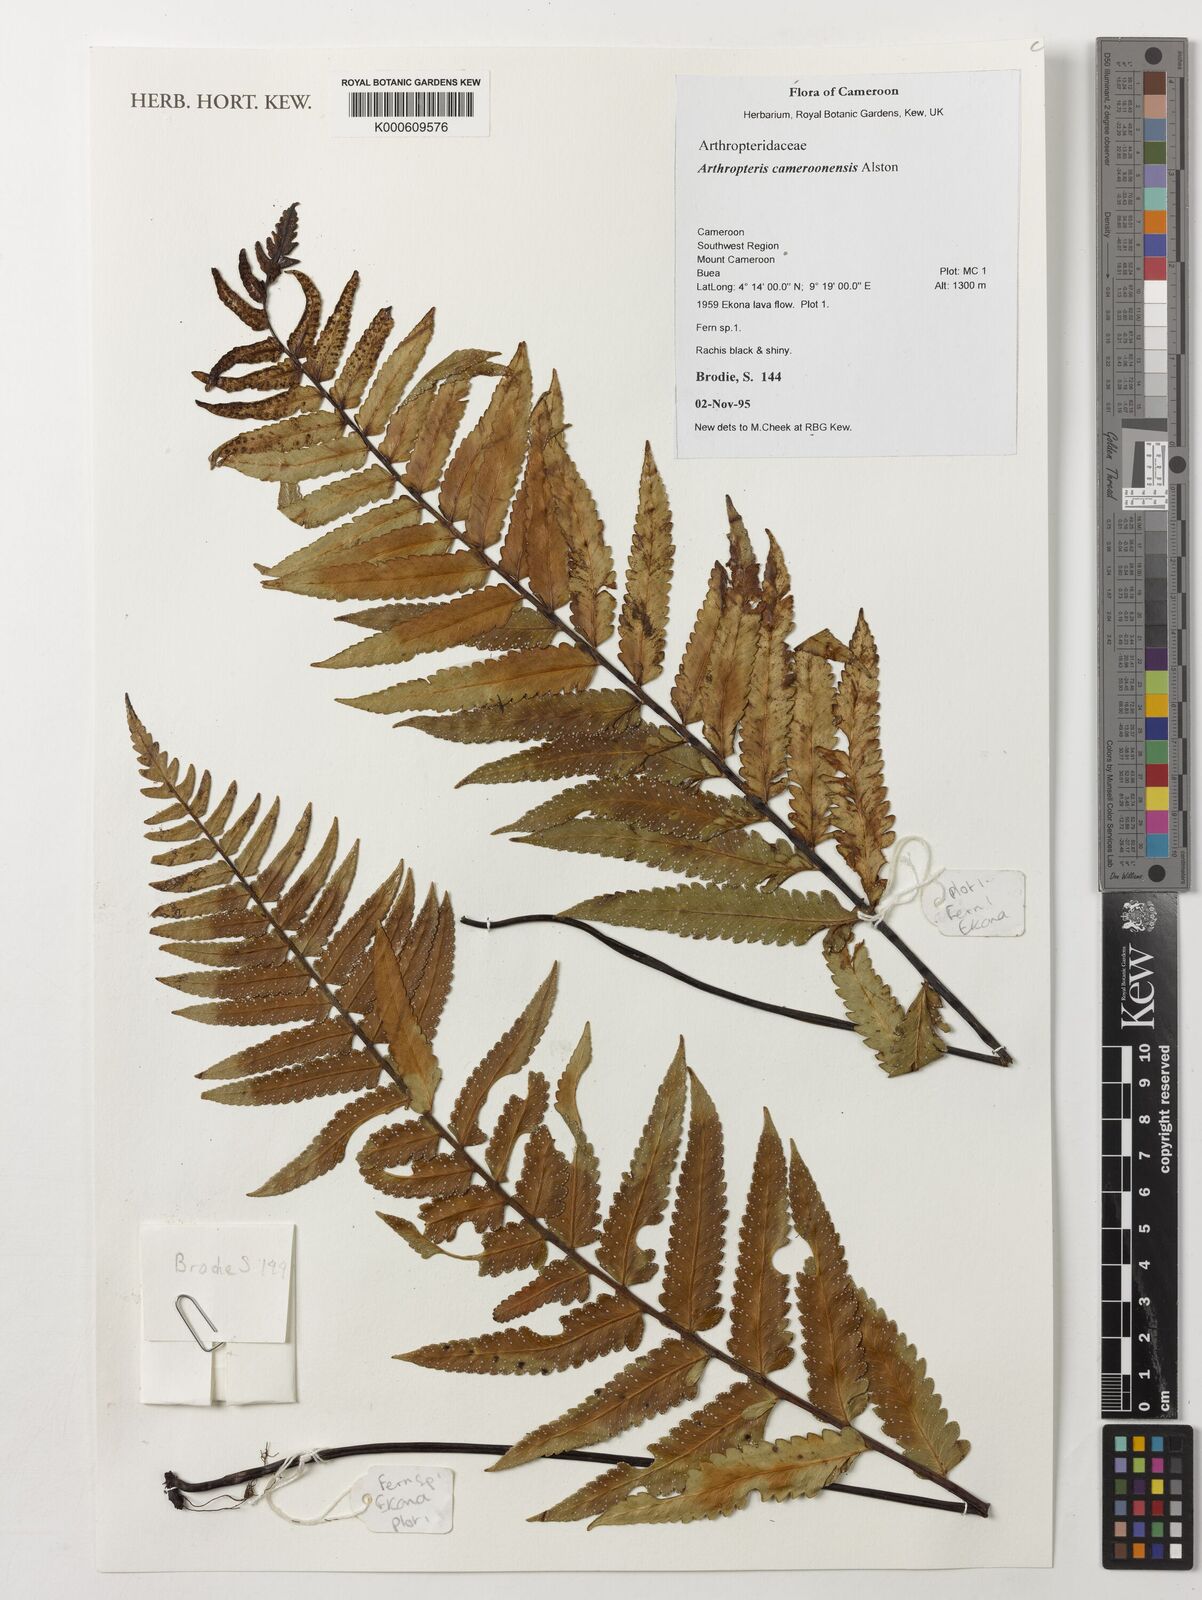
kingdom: Plantae
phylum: Tracheophyta
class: Polypodiopsida
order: Polypodiales
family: Tectariaceae
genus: Arthropteris
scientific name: Arthropteris cameroonensis
